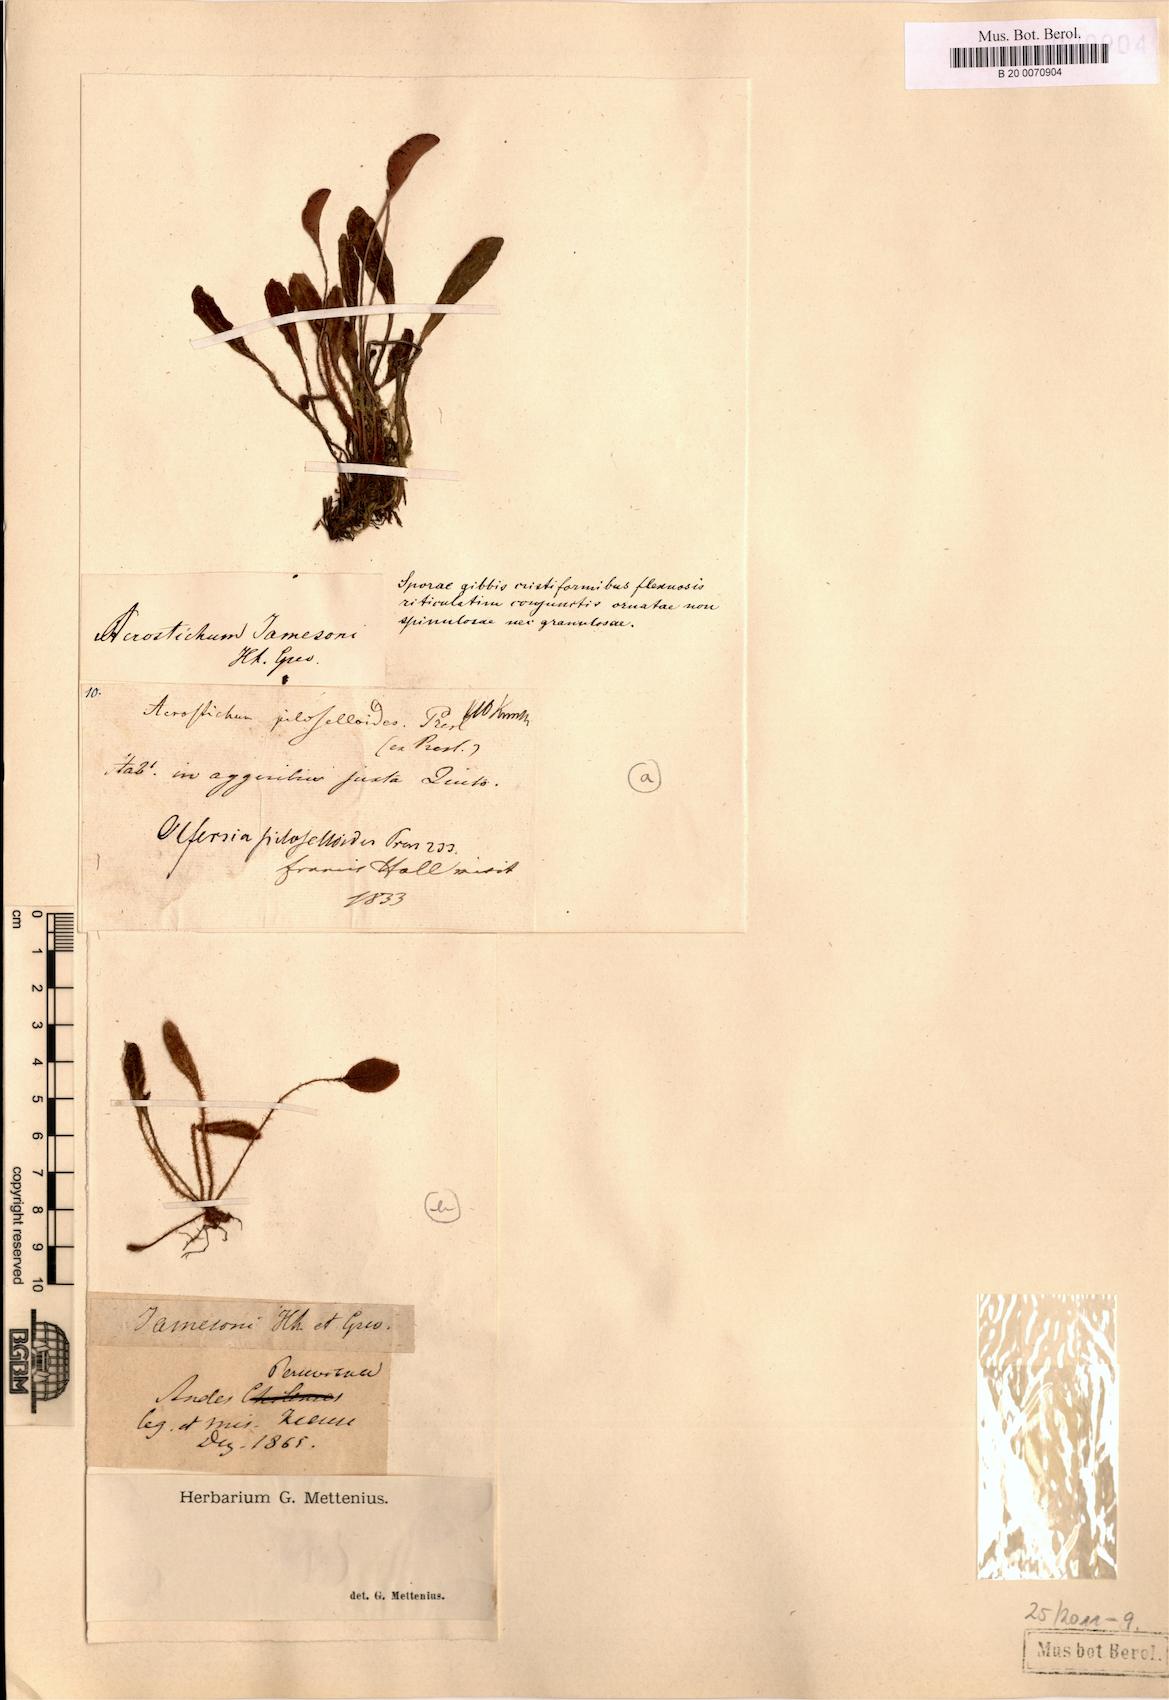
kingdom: Plantae
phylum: Tracheophyta
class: Polypodiopsida
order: Polypodiales
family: Dryopteridaceae
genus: Elaphoglossum
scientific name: Elaphoglossum piloselloides
